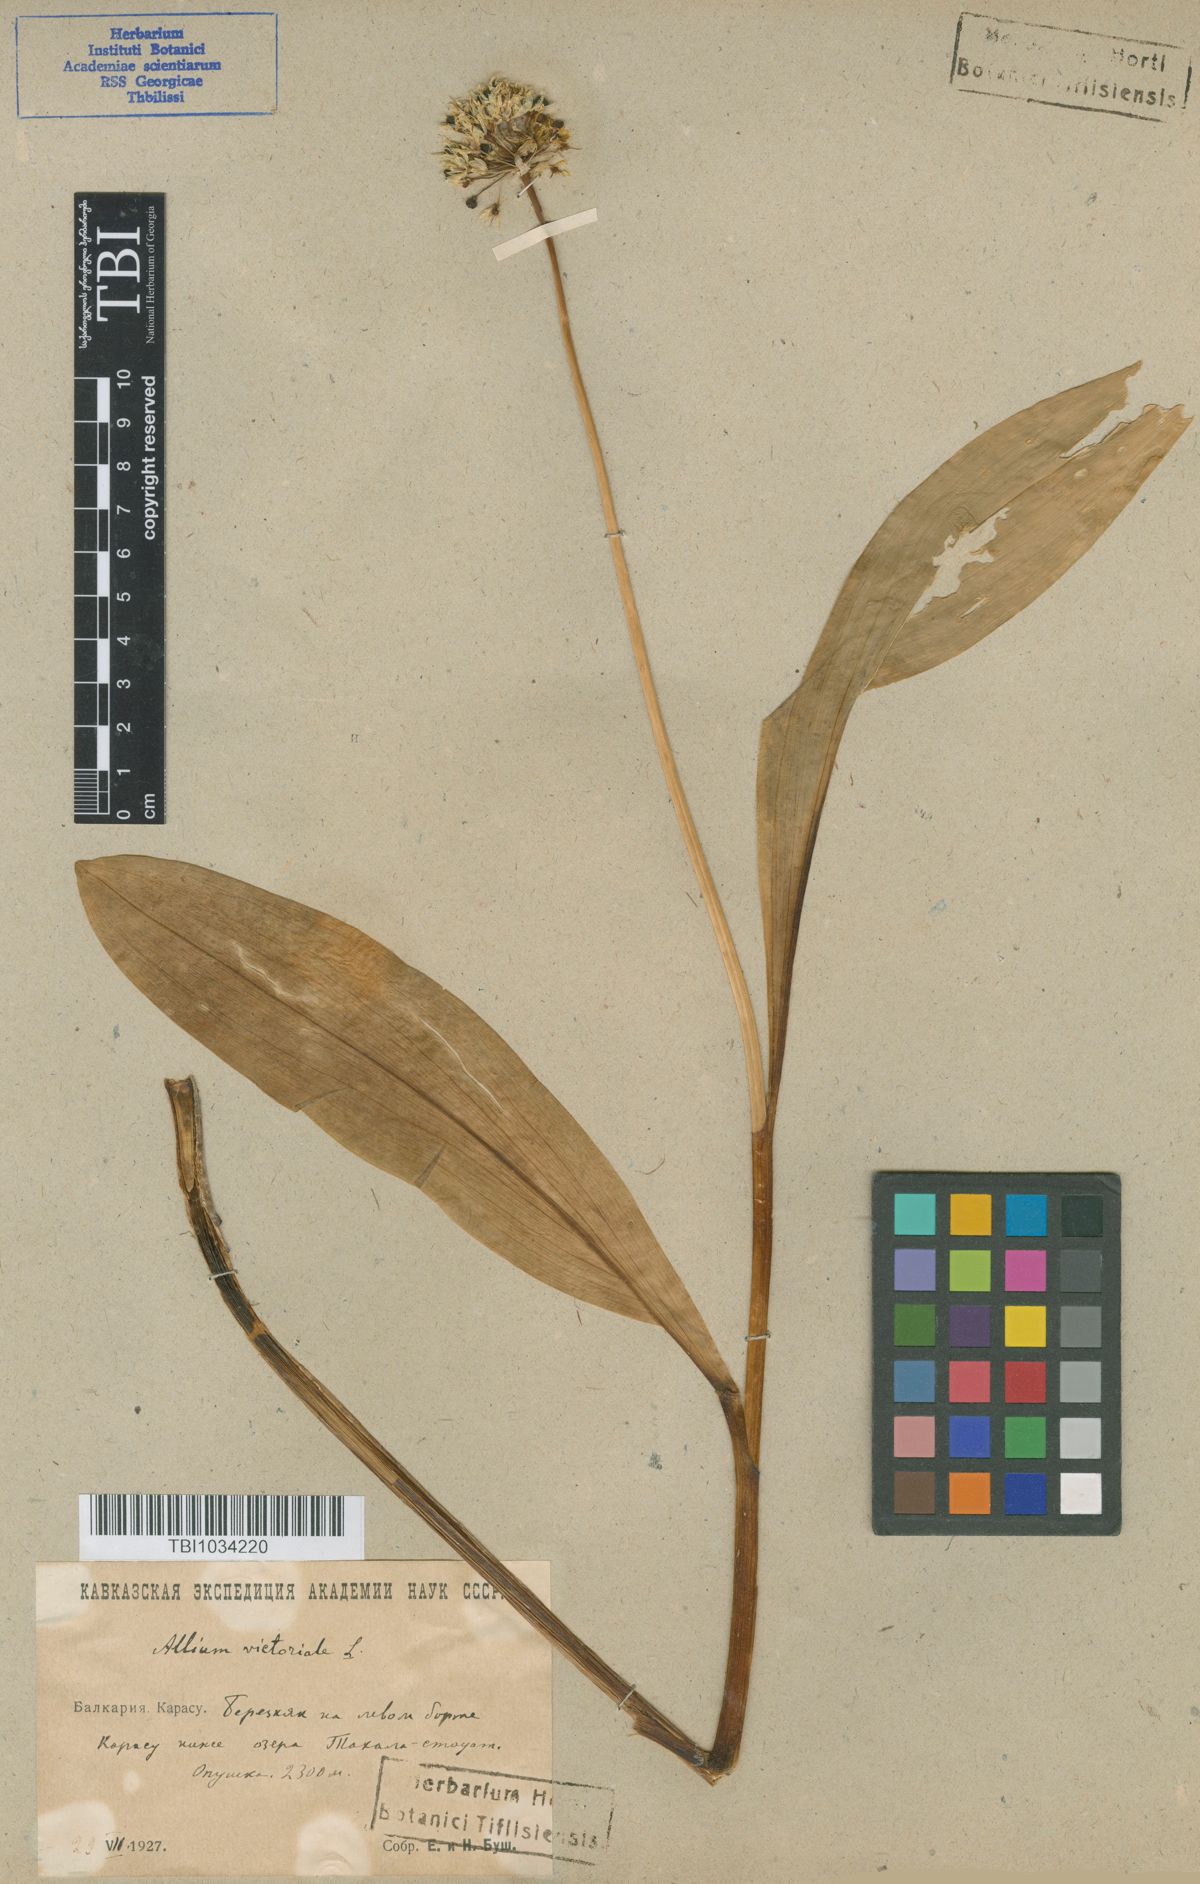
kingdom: Plantae
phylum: Tracheophyta
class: Liliopsida
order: Asparagales
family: Amaryllidaceae
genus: Allium
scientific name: Allium victorialis
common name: Alpine leek
